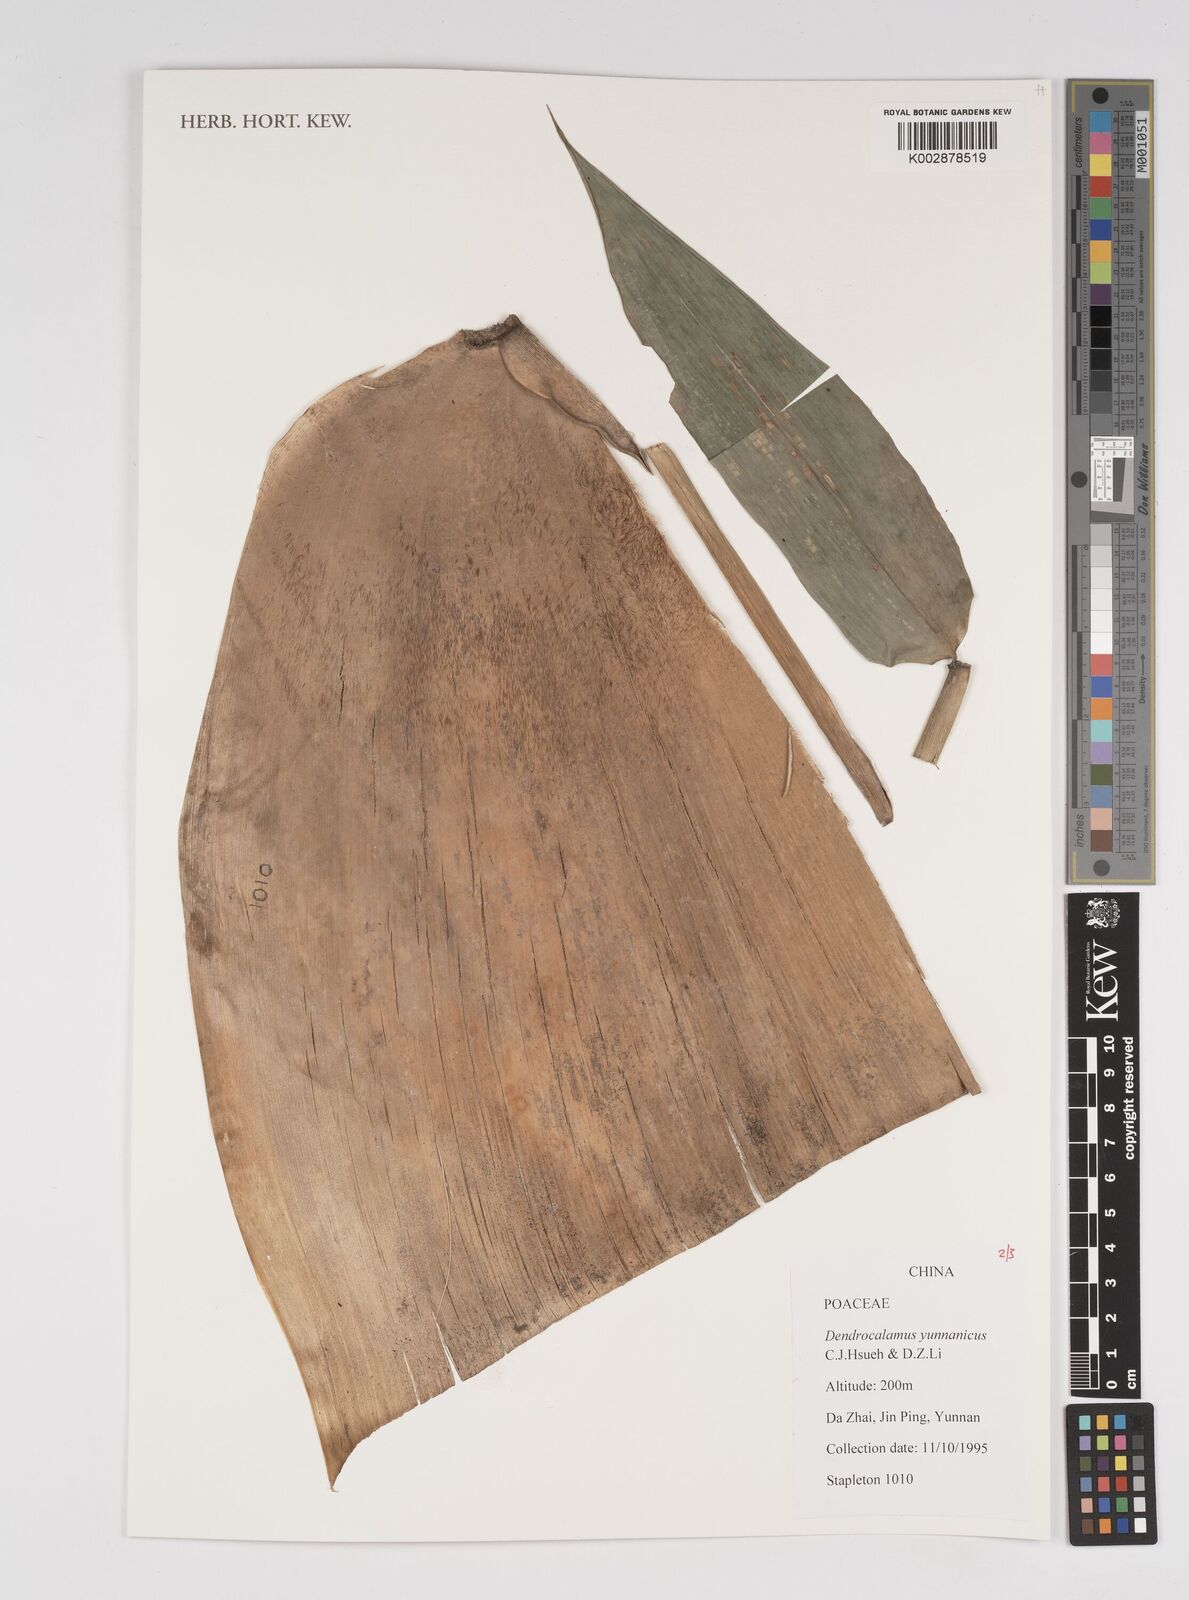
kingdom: Plantae
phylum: Tracheophyta
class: Liliopsida
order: Poales
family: Poaceae
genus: Dendrocalamus
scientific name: Dendrocalamus yunnanicus
